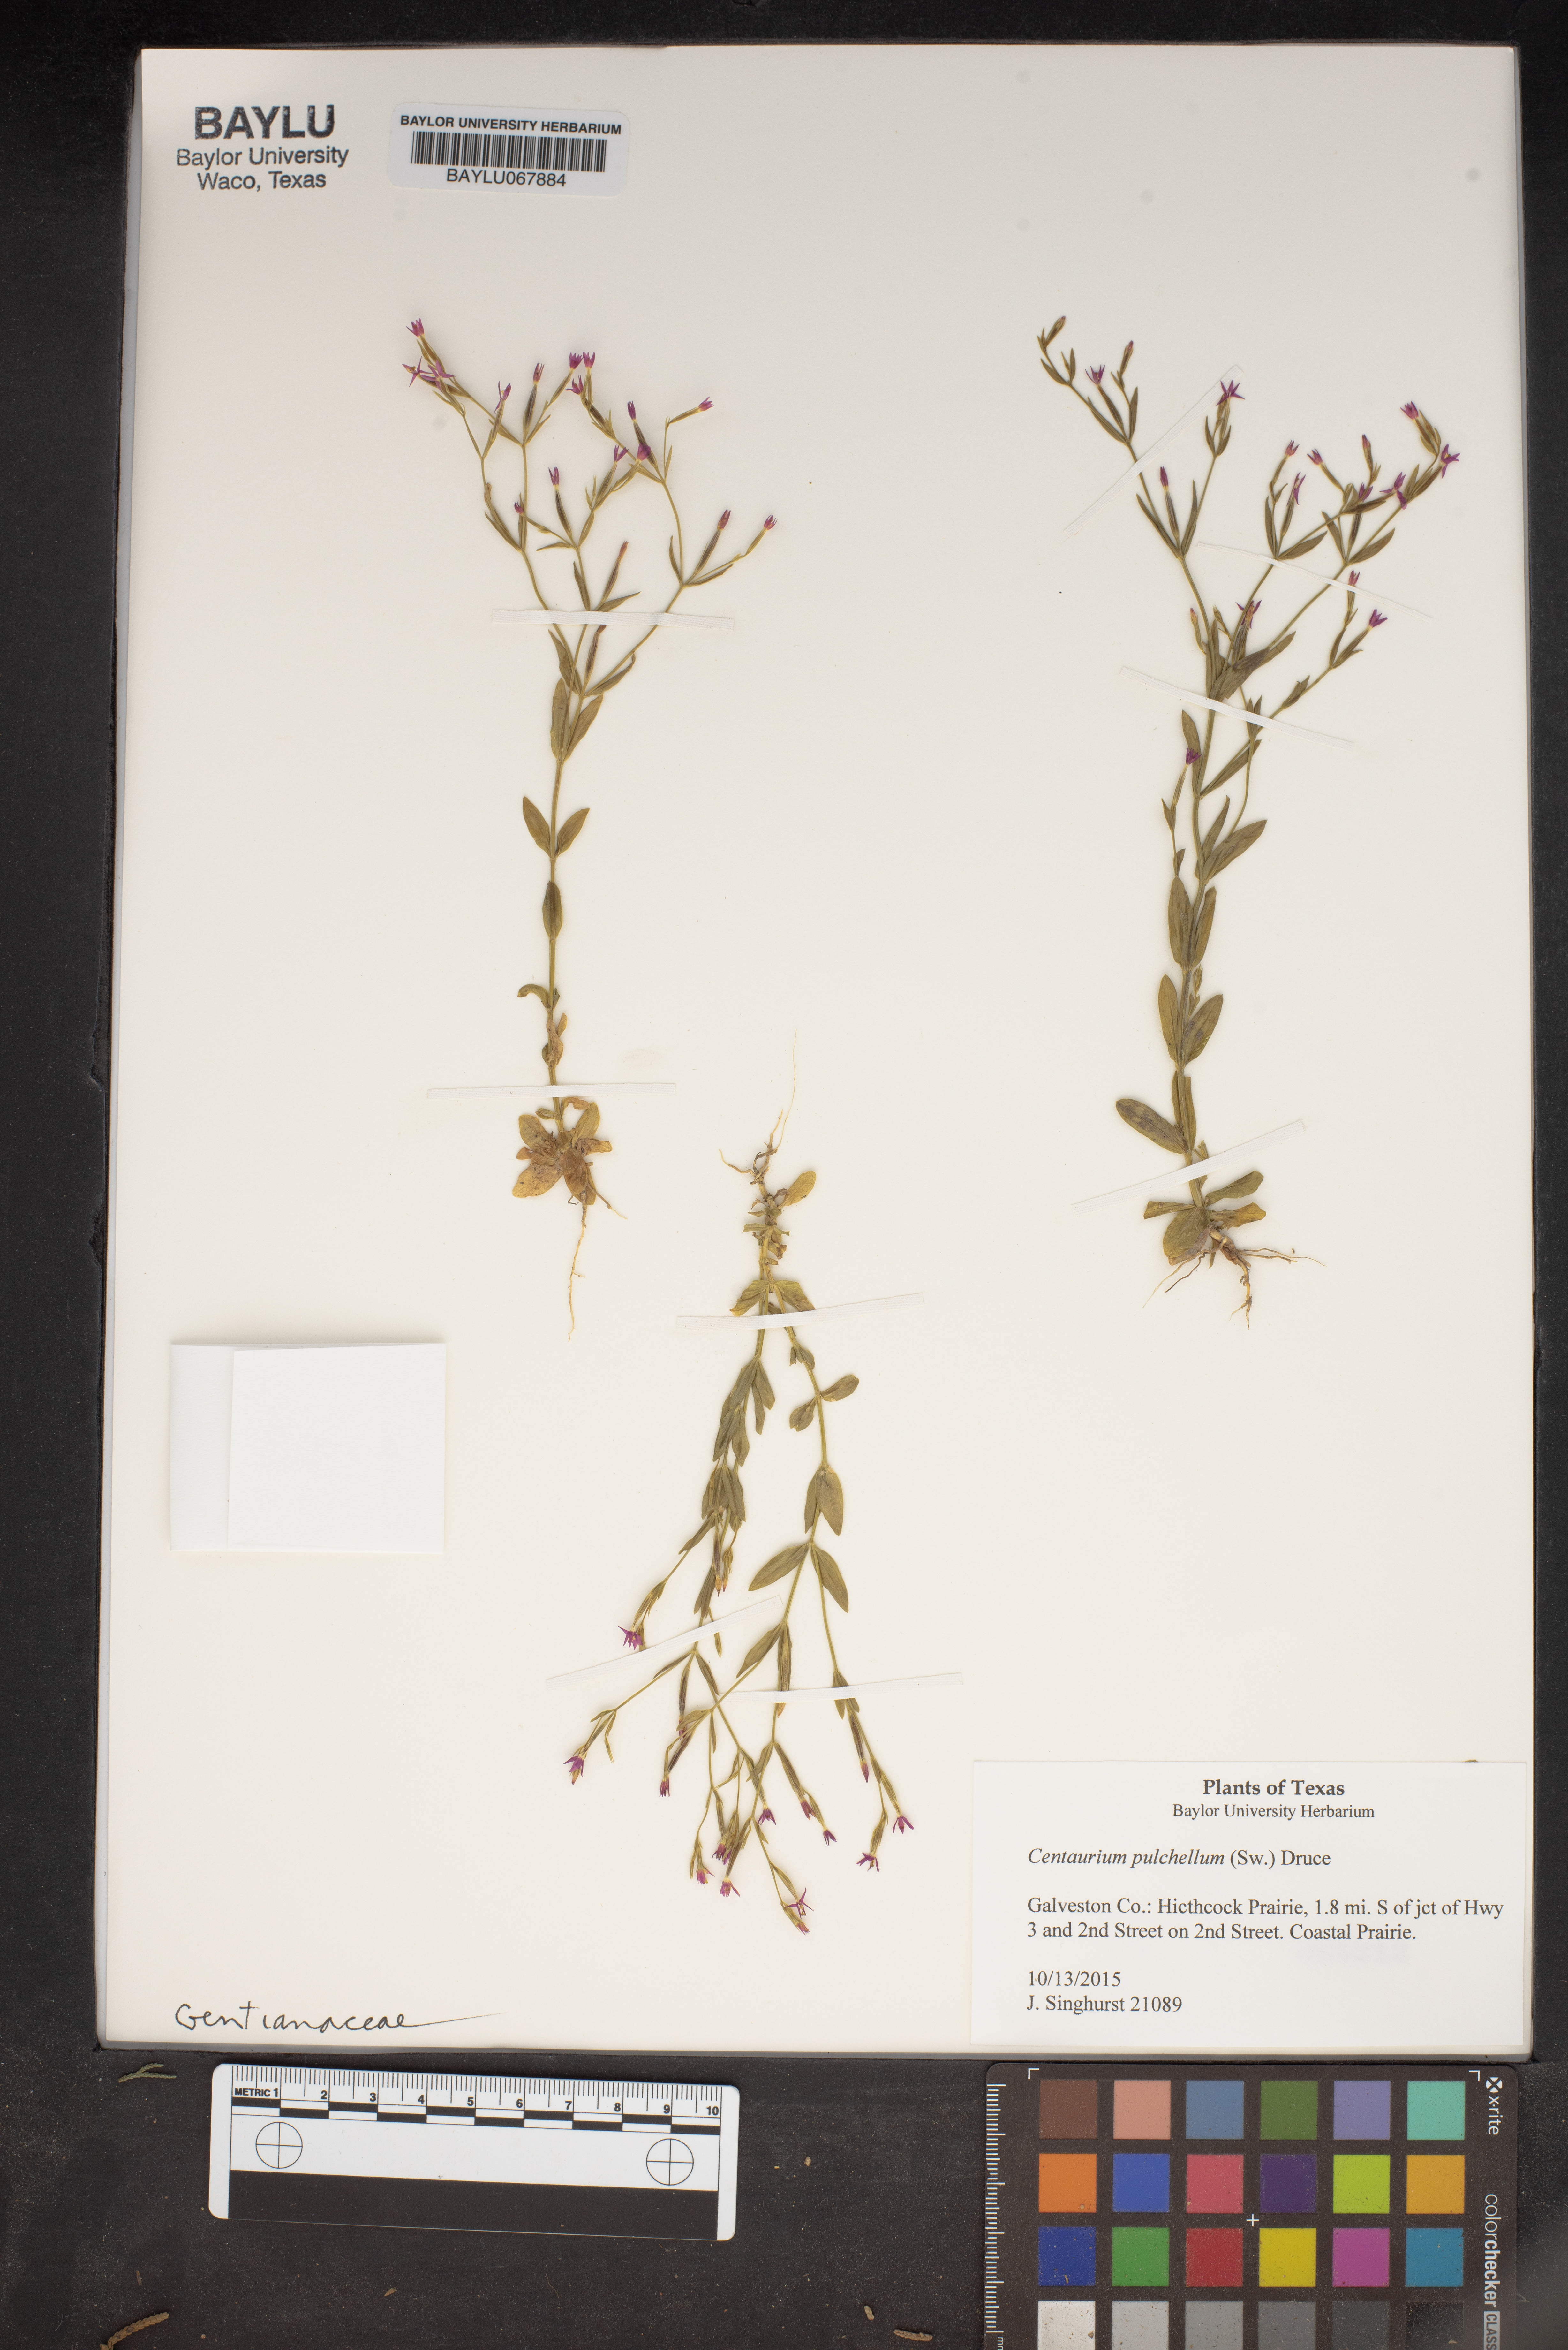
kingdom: Plantae
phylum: Tracheophyta
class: Magnoliopsida
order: Gentianales
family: Gentianaceae
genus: Centaurium
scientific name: Centaurium pulchellum
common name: Lesser centaury
